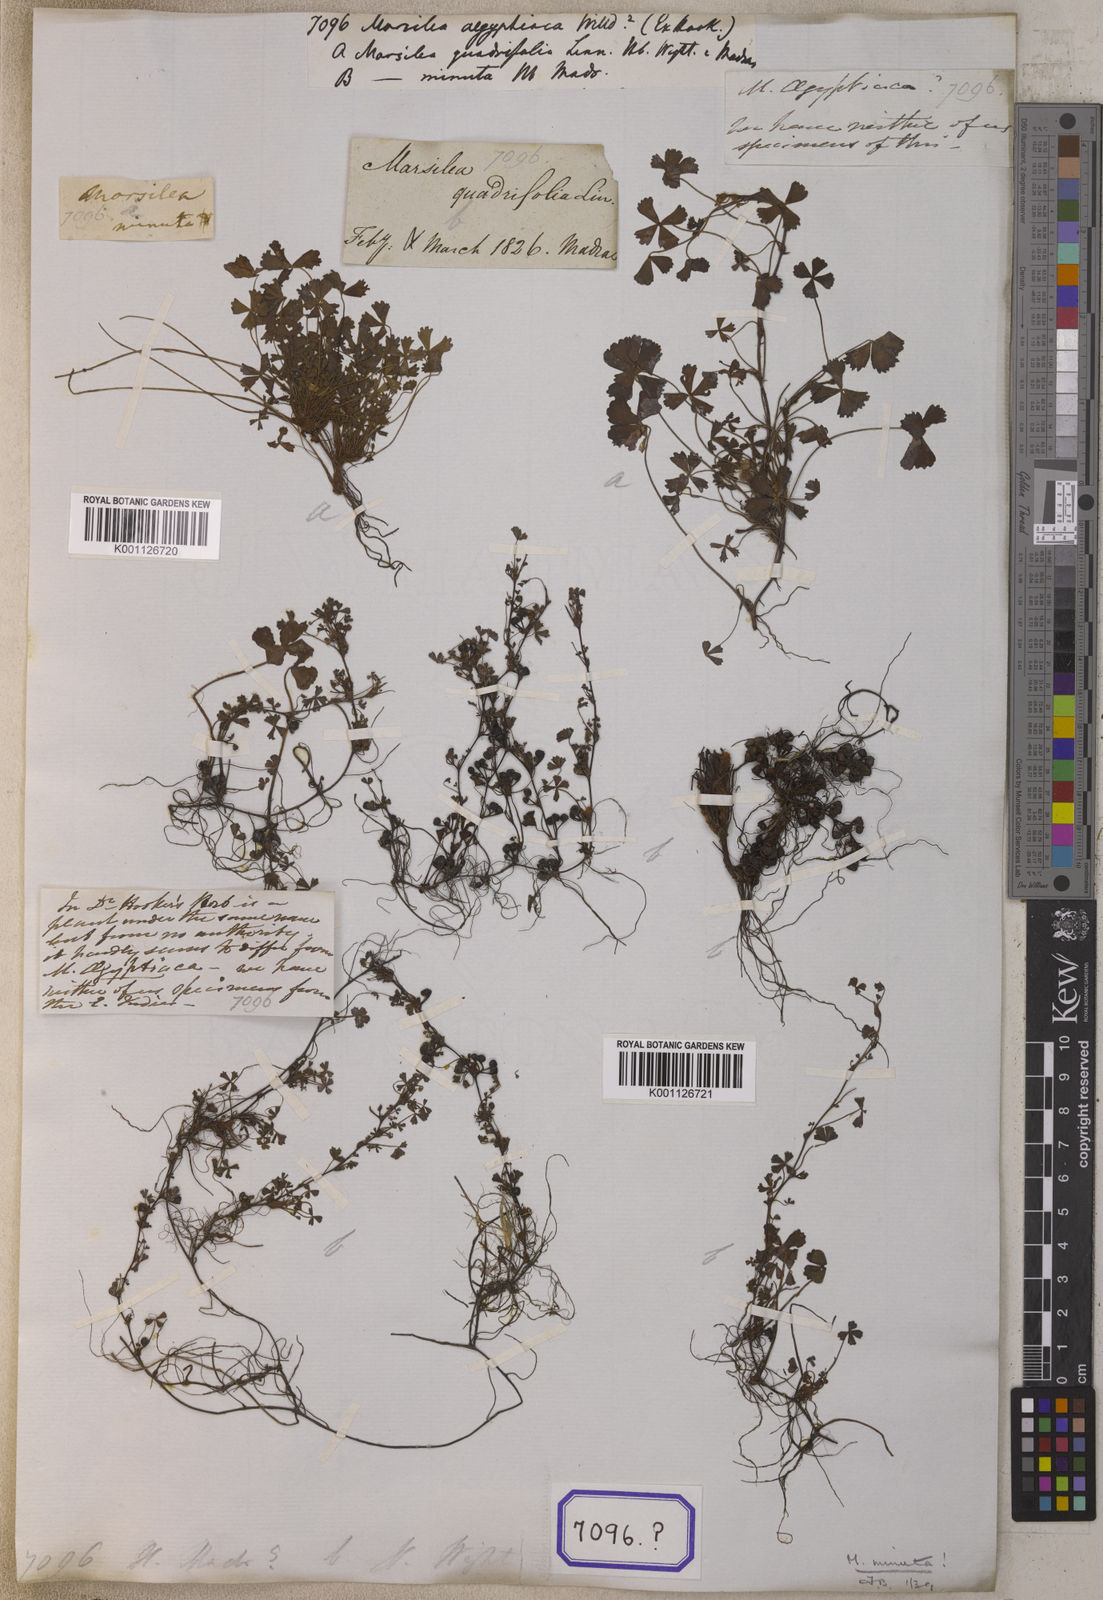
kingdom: Plantae
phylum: Tracheophyta
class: Polypodiopsida
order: Salviniales
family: Marsileaceae
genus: Marsilea
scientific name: Marsilea minuta
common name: Dwarf waterclover
